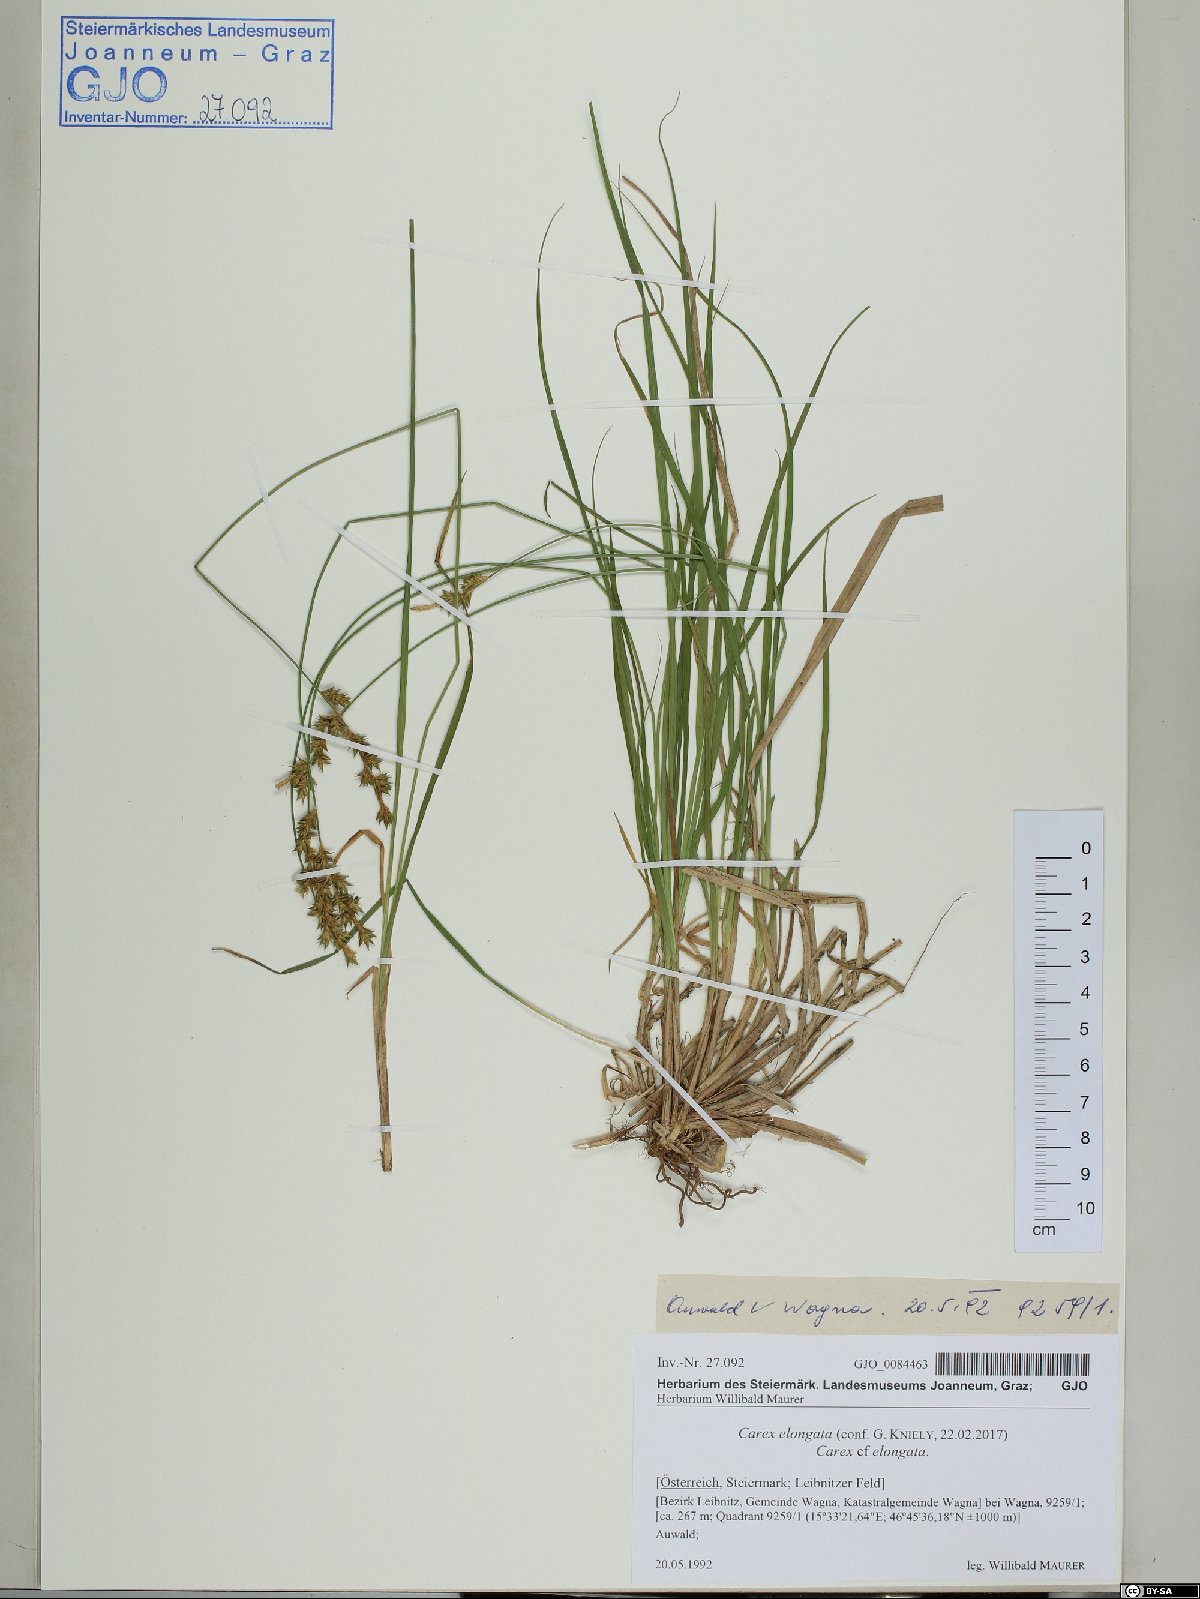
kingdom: Plantae
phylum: Tracheophyta
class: Liliopsida
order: Poales
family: Cyperaceae
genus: Carex
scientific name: Carex elongata
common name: Elongated sedge
